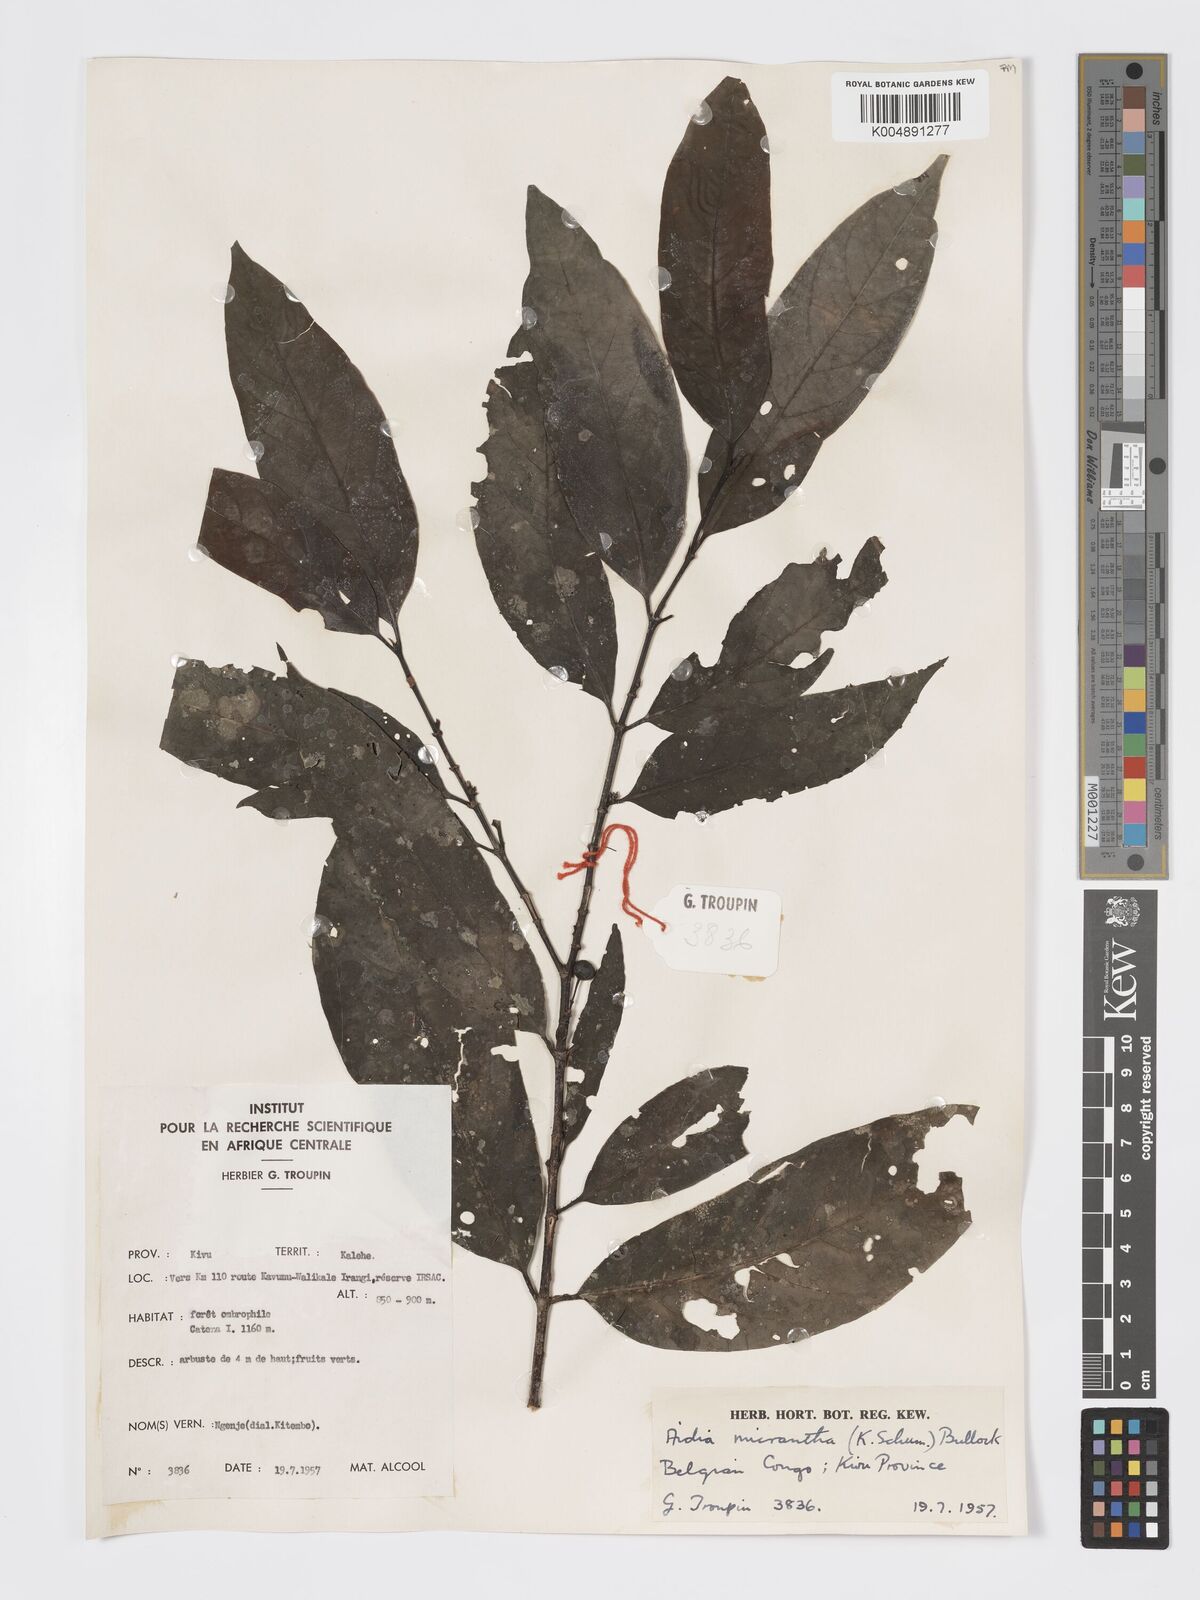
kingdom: Plantae
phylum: Tracheophyta
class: Magnoliopsida
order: Gentianales
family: Rubiaceae
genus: Aidia
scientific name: Aidia micrantha
